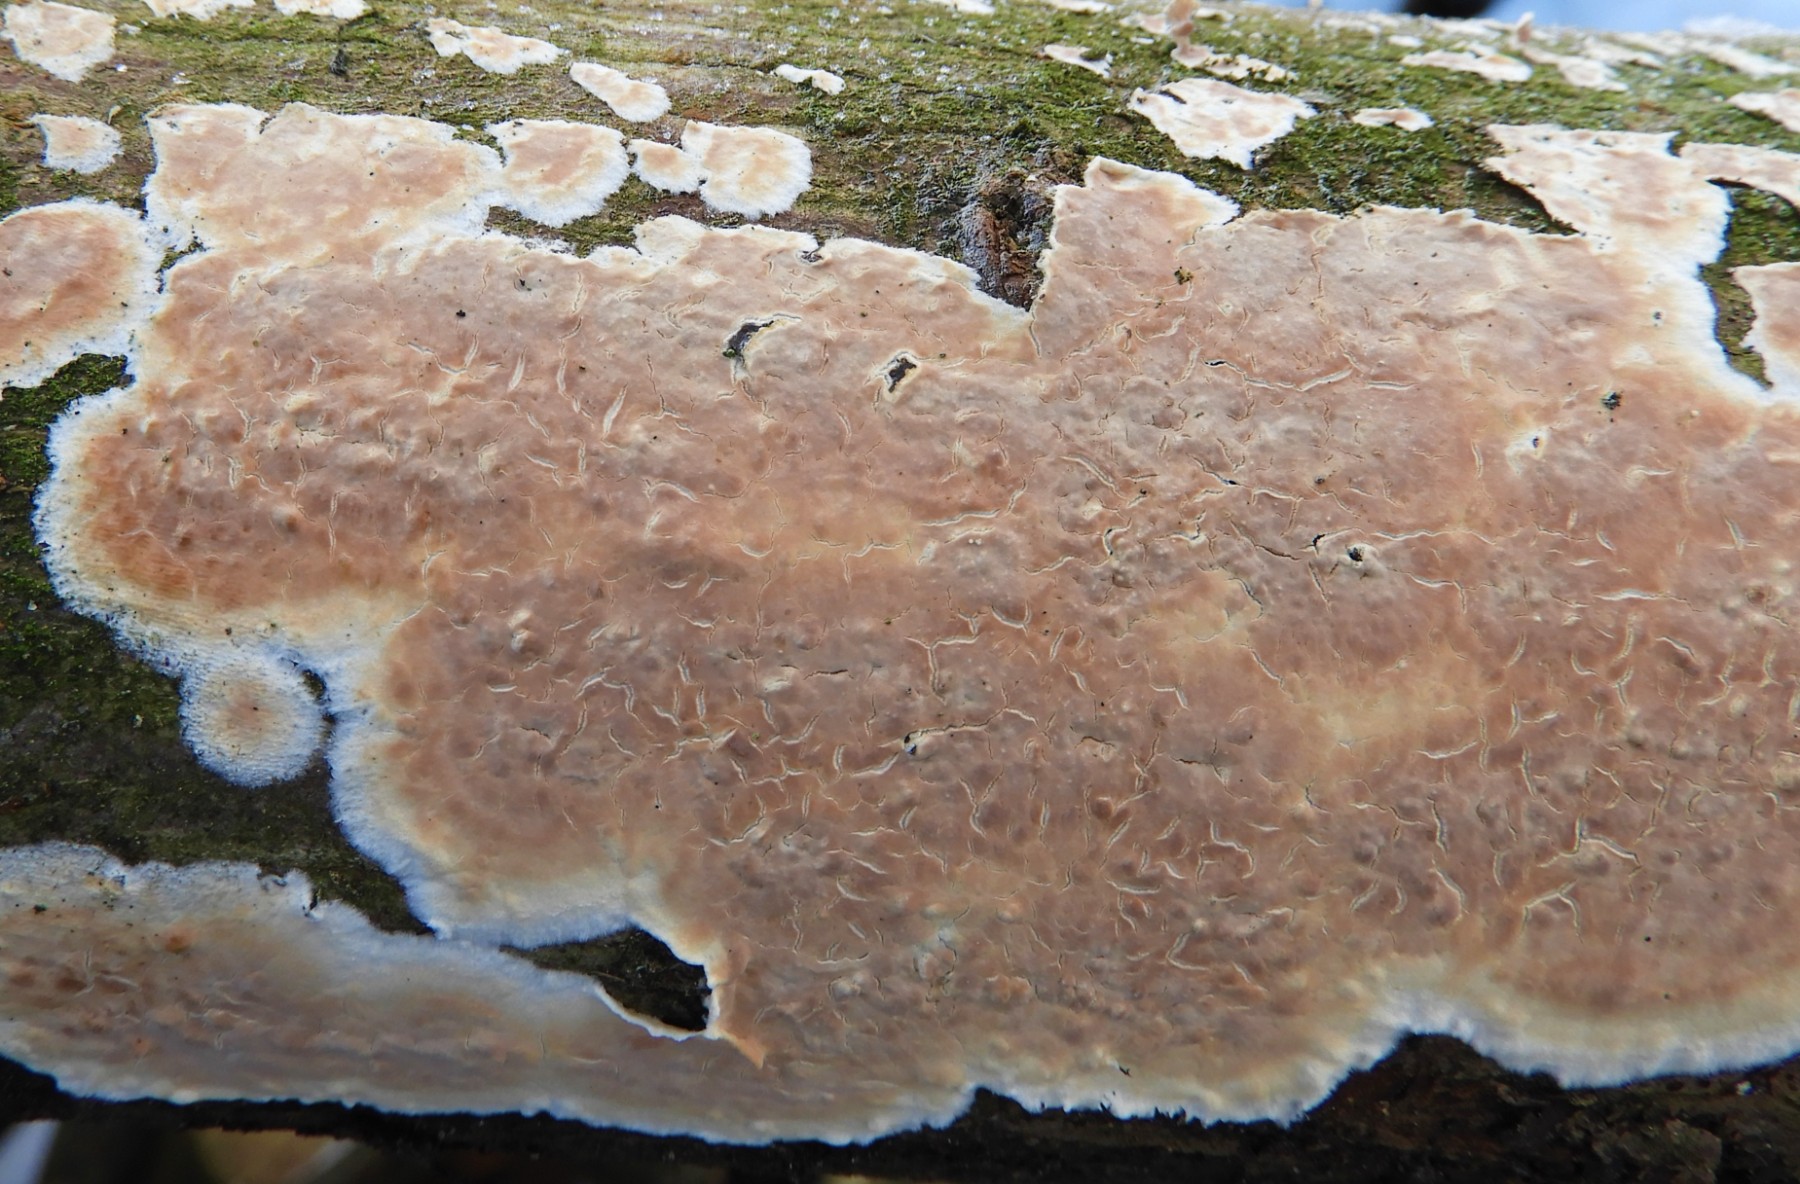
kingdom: Fungi
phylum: Basidiomycota
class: Agaricomycetes
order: Agaricales
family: Physalacriaceae
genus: Cylindrobasidium
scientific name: Cylindrobasidium evolvens
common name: sprækkehinde
